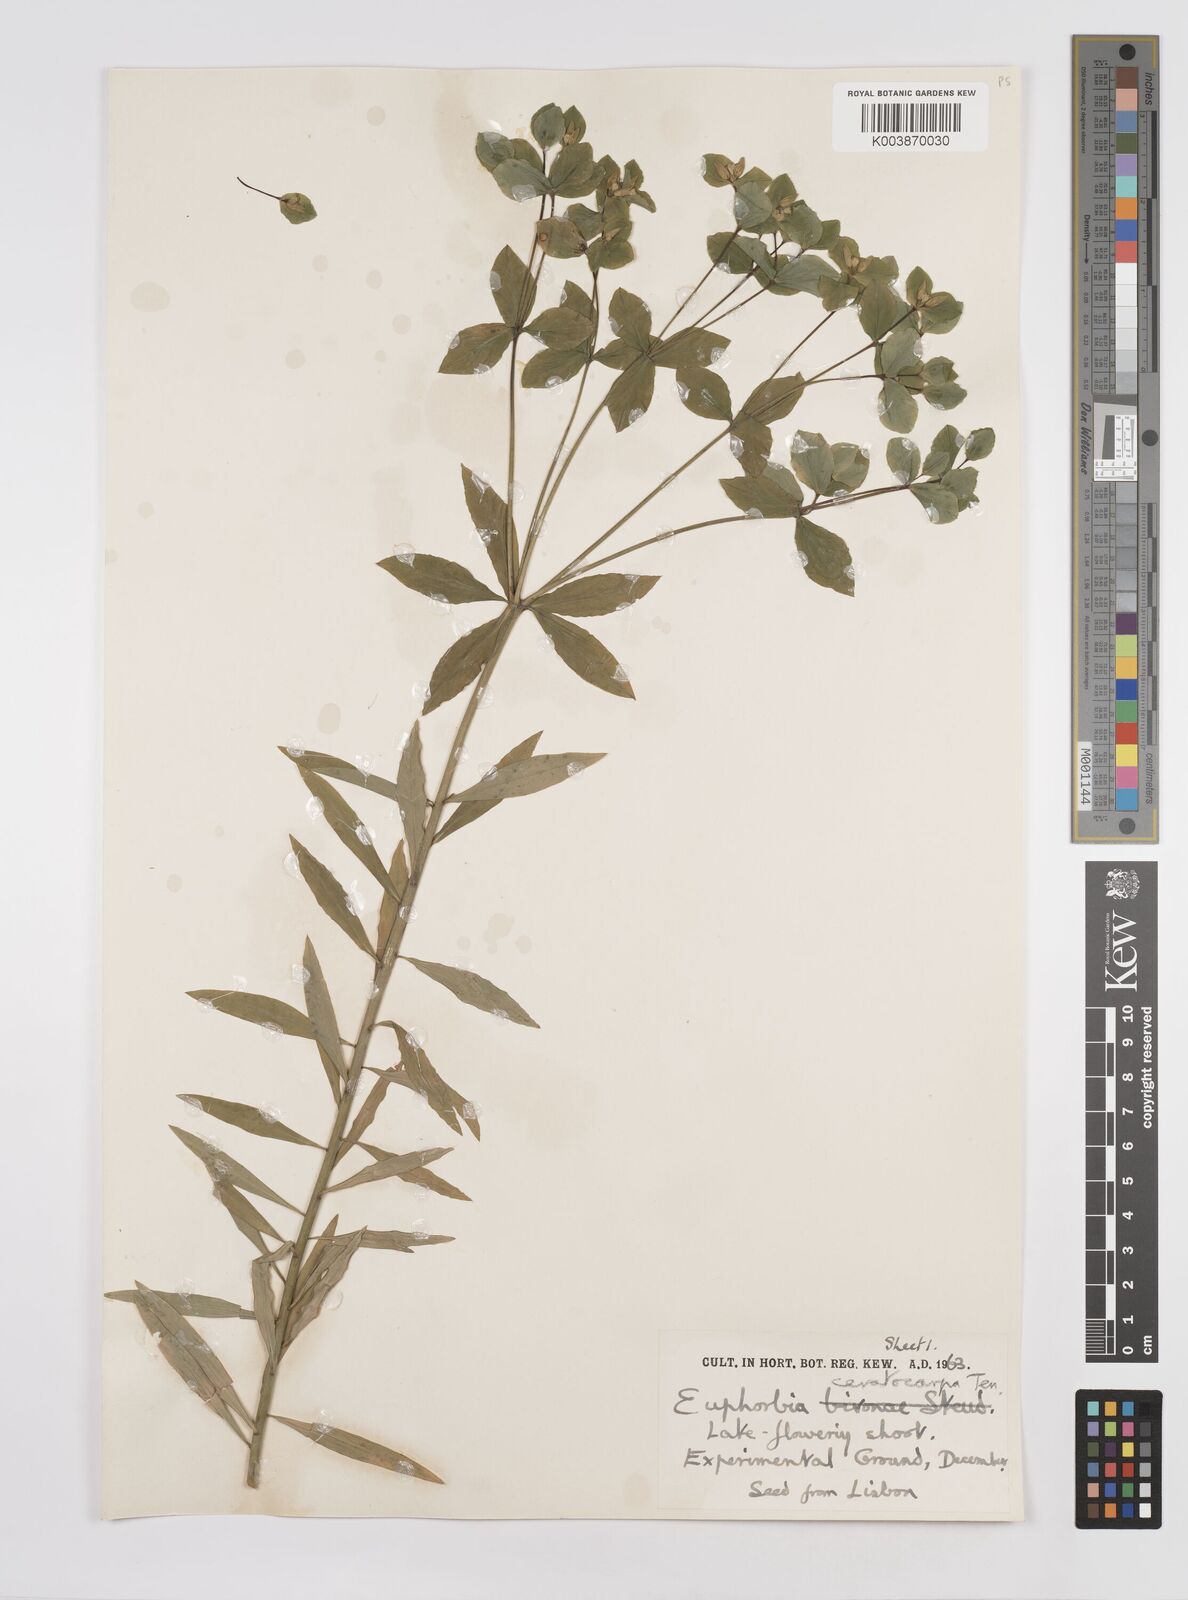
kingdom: Plantae
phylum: Tracheophyta
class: Magnoliopsida
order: Malpighiales
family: Euphorbiaceae
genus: Euphorbia
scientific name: Euphorbia ceratocarpa
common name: Horned spurge
